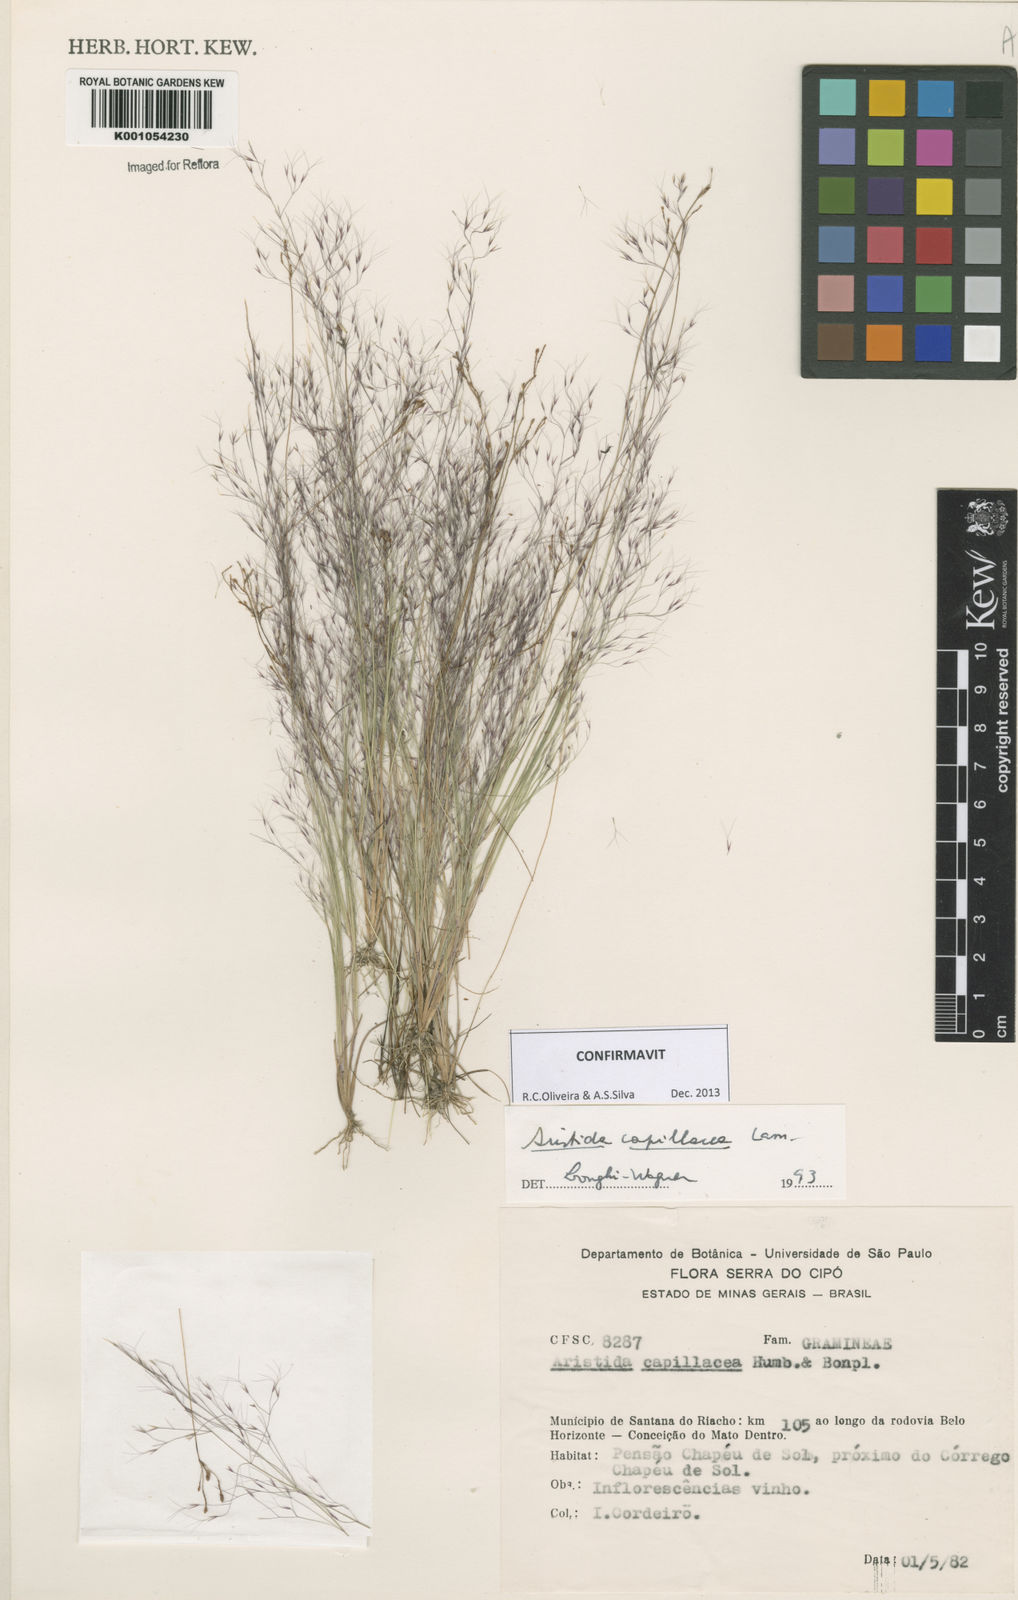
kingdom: Plantae
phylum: Tracheophyta
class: Liliopsida
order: Poales
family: Poaceae
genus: Aristida
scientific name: Aristida capillacea
